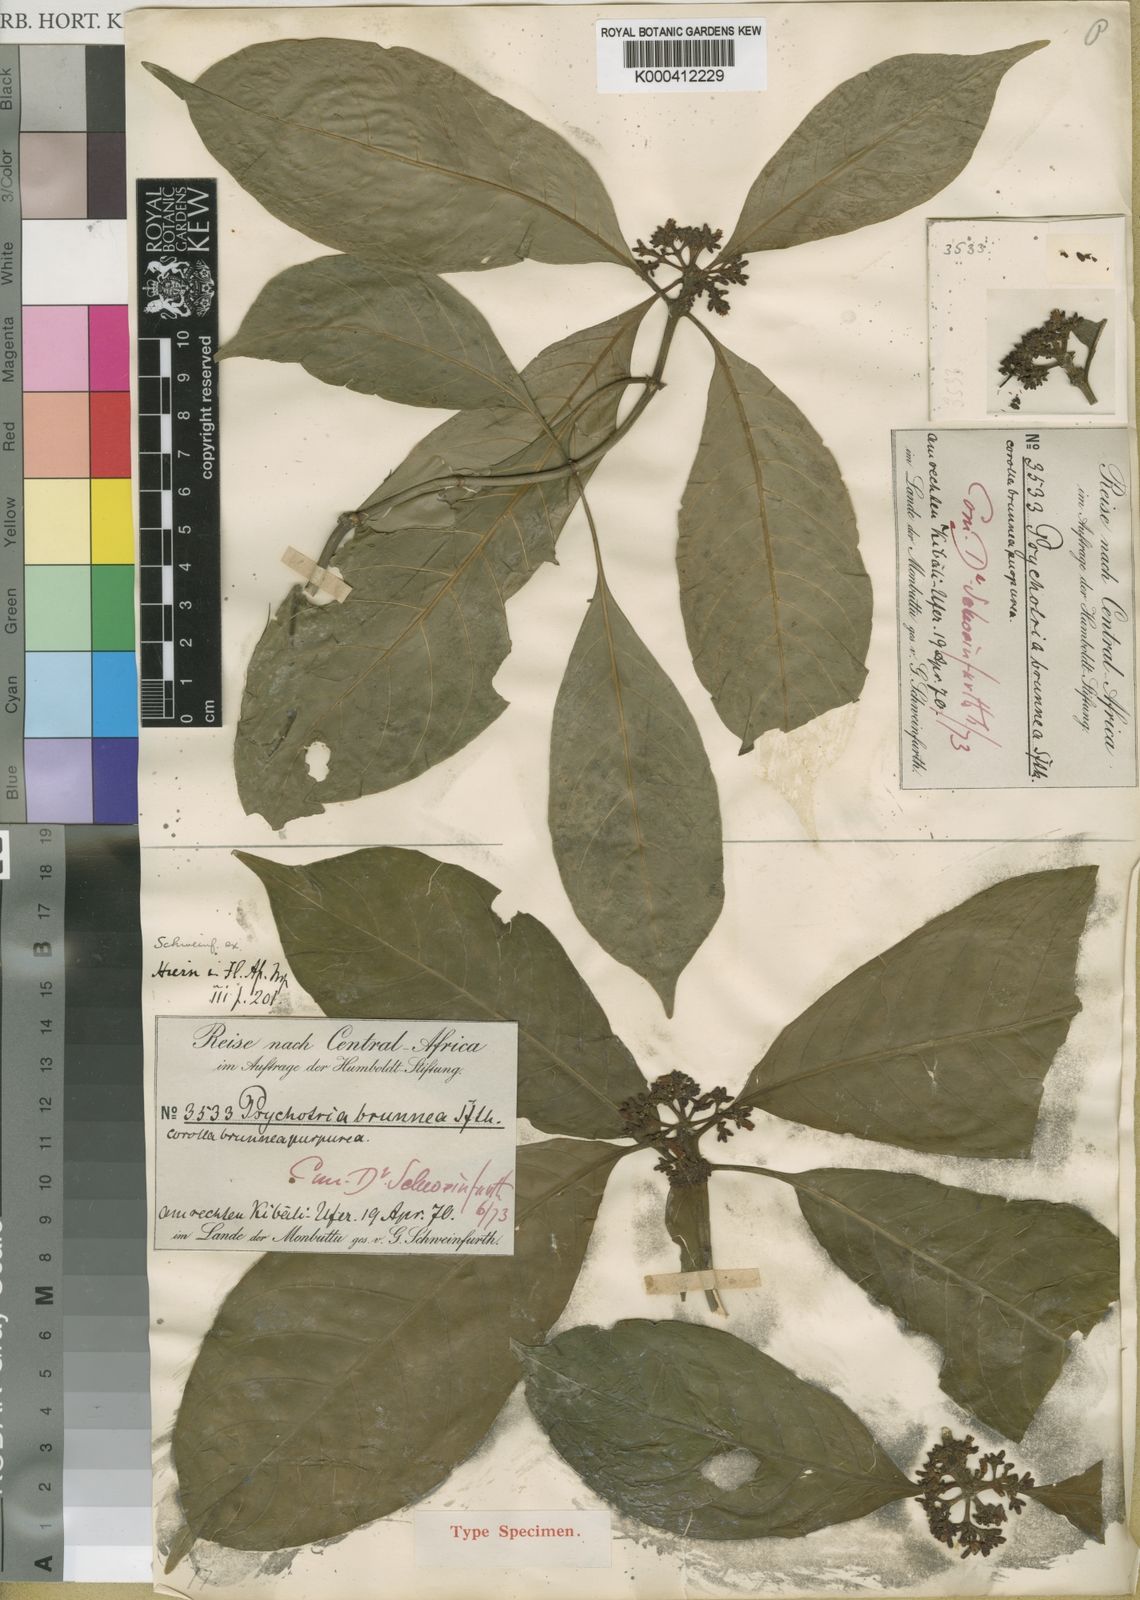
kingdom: Plantae
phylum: Tracheophyta
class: Magnoliopsida
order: Gentianales
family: Rubiaceae
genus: Chassalia
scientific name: Chassalia
